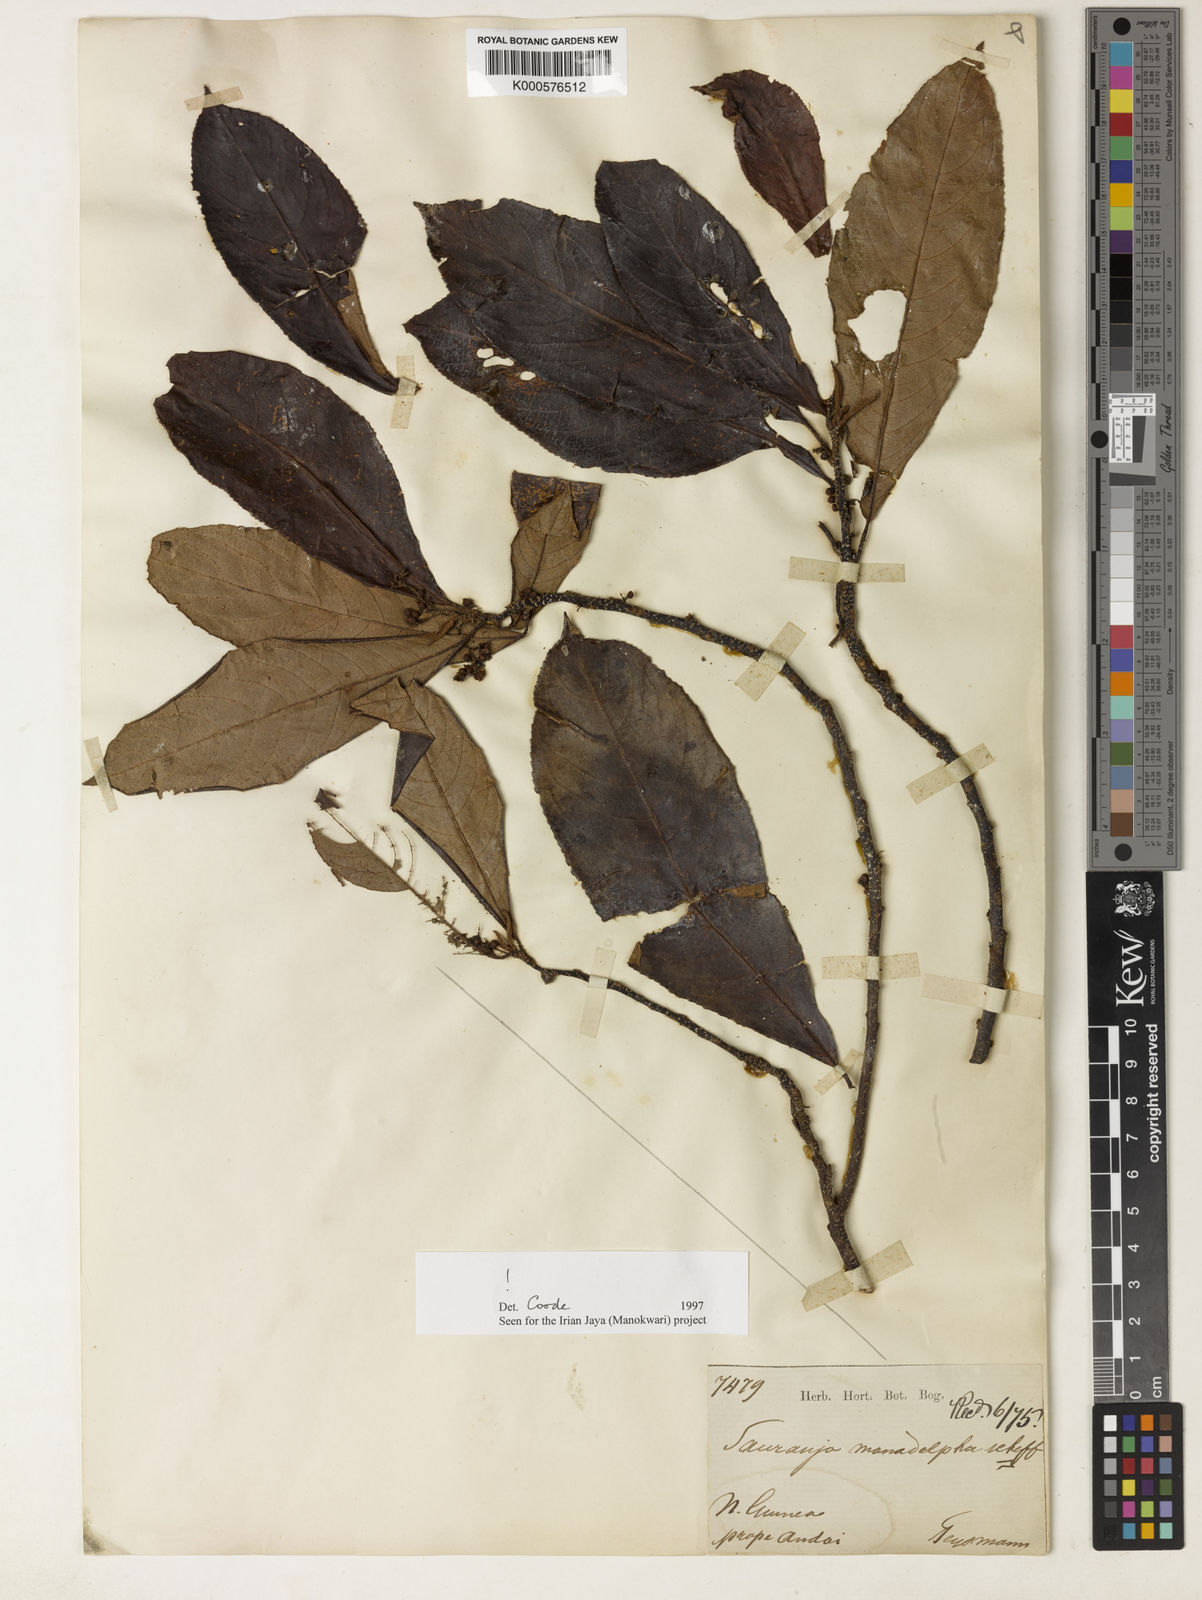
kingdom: Plantae
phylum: Tracheophyta
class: Magnoliopsida
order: Ericales
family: Actinidiaceae
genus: Saurauia
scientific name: Saurauia monadelpha
